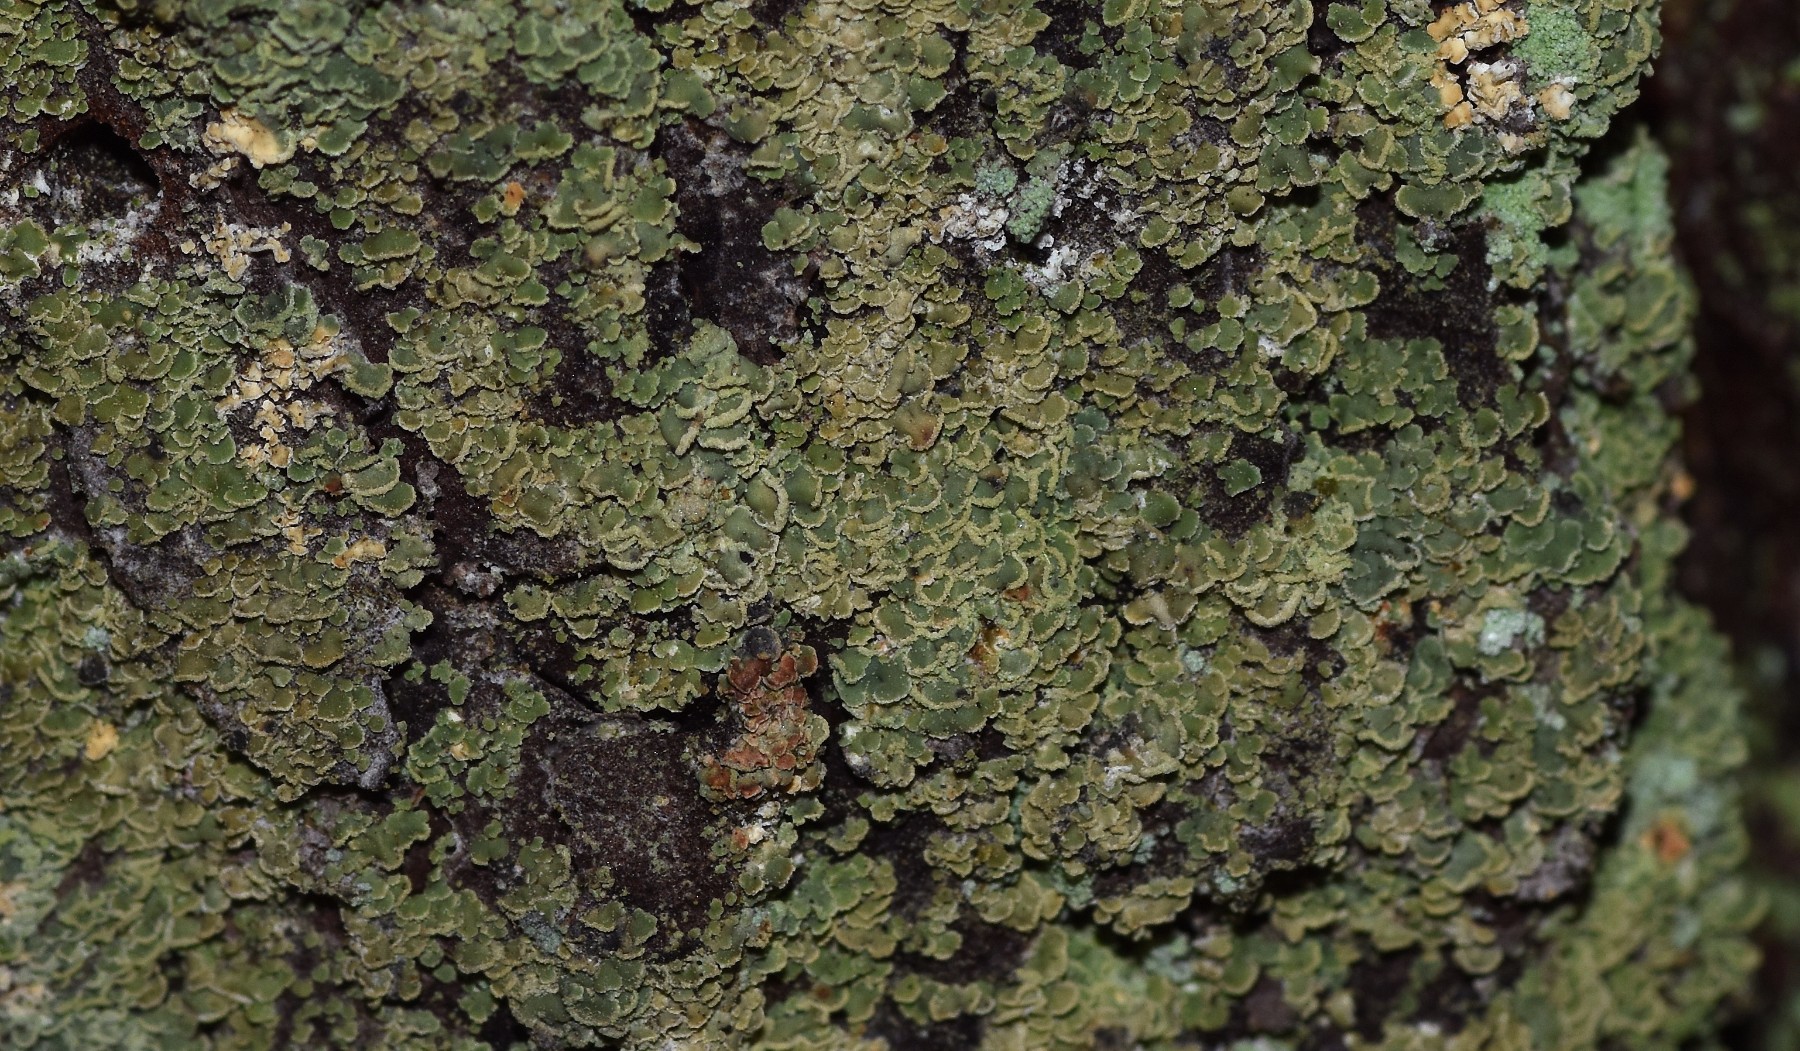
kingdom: Fungi
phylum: Ascomycota
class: Lecanoromycetes
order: Umbilicariales
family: Ophioparmaceae
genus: Hypocenomyce
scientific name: Hypocenomyce scalaris
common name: småskællet muslinglav
